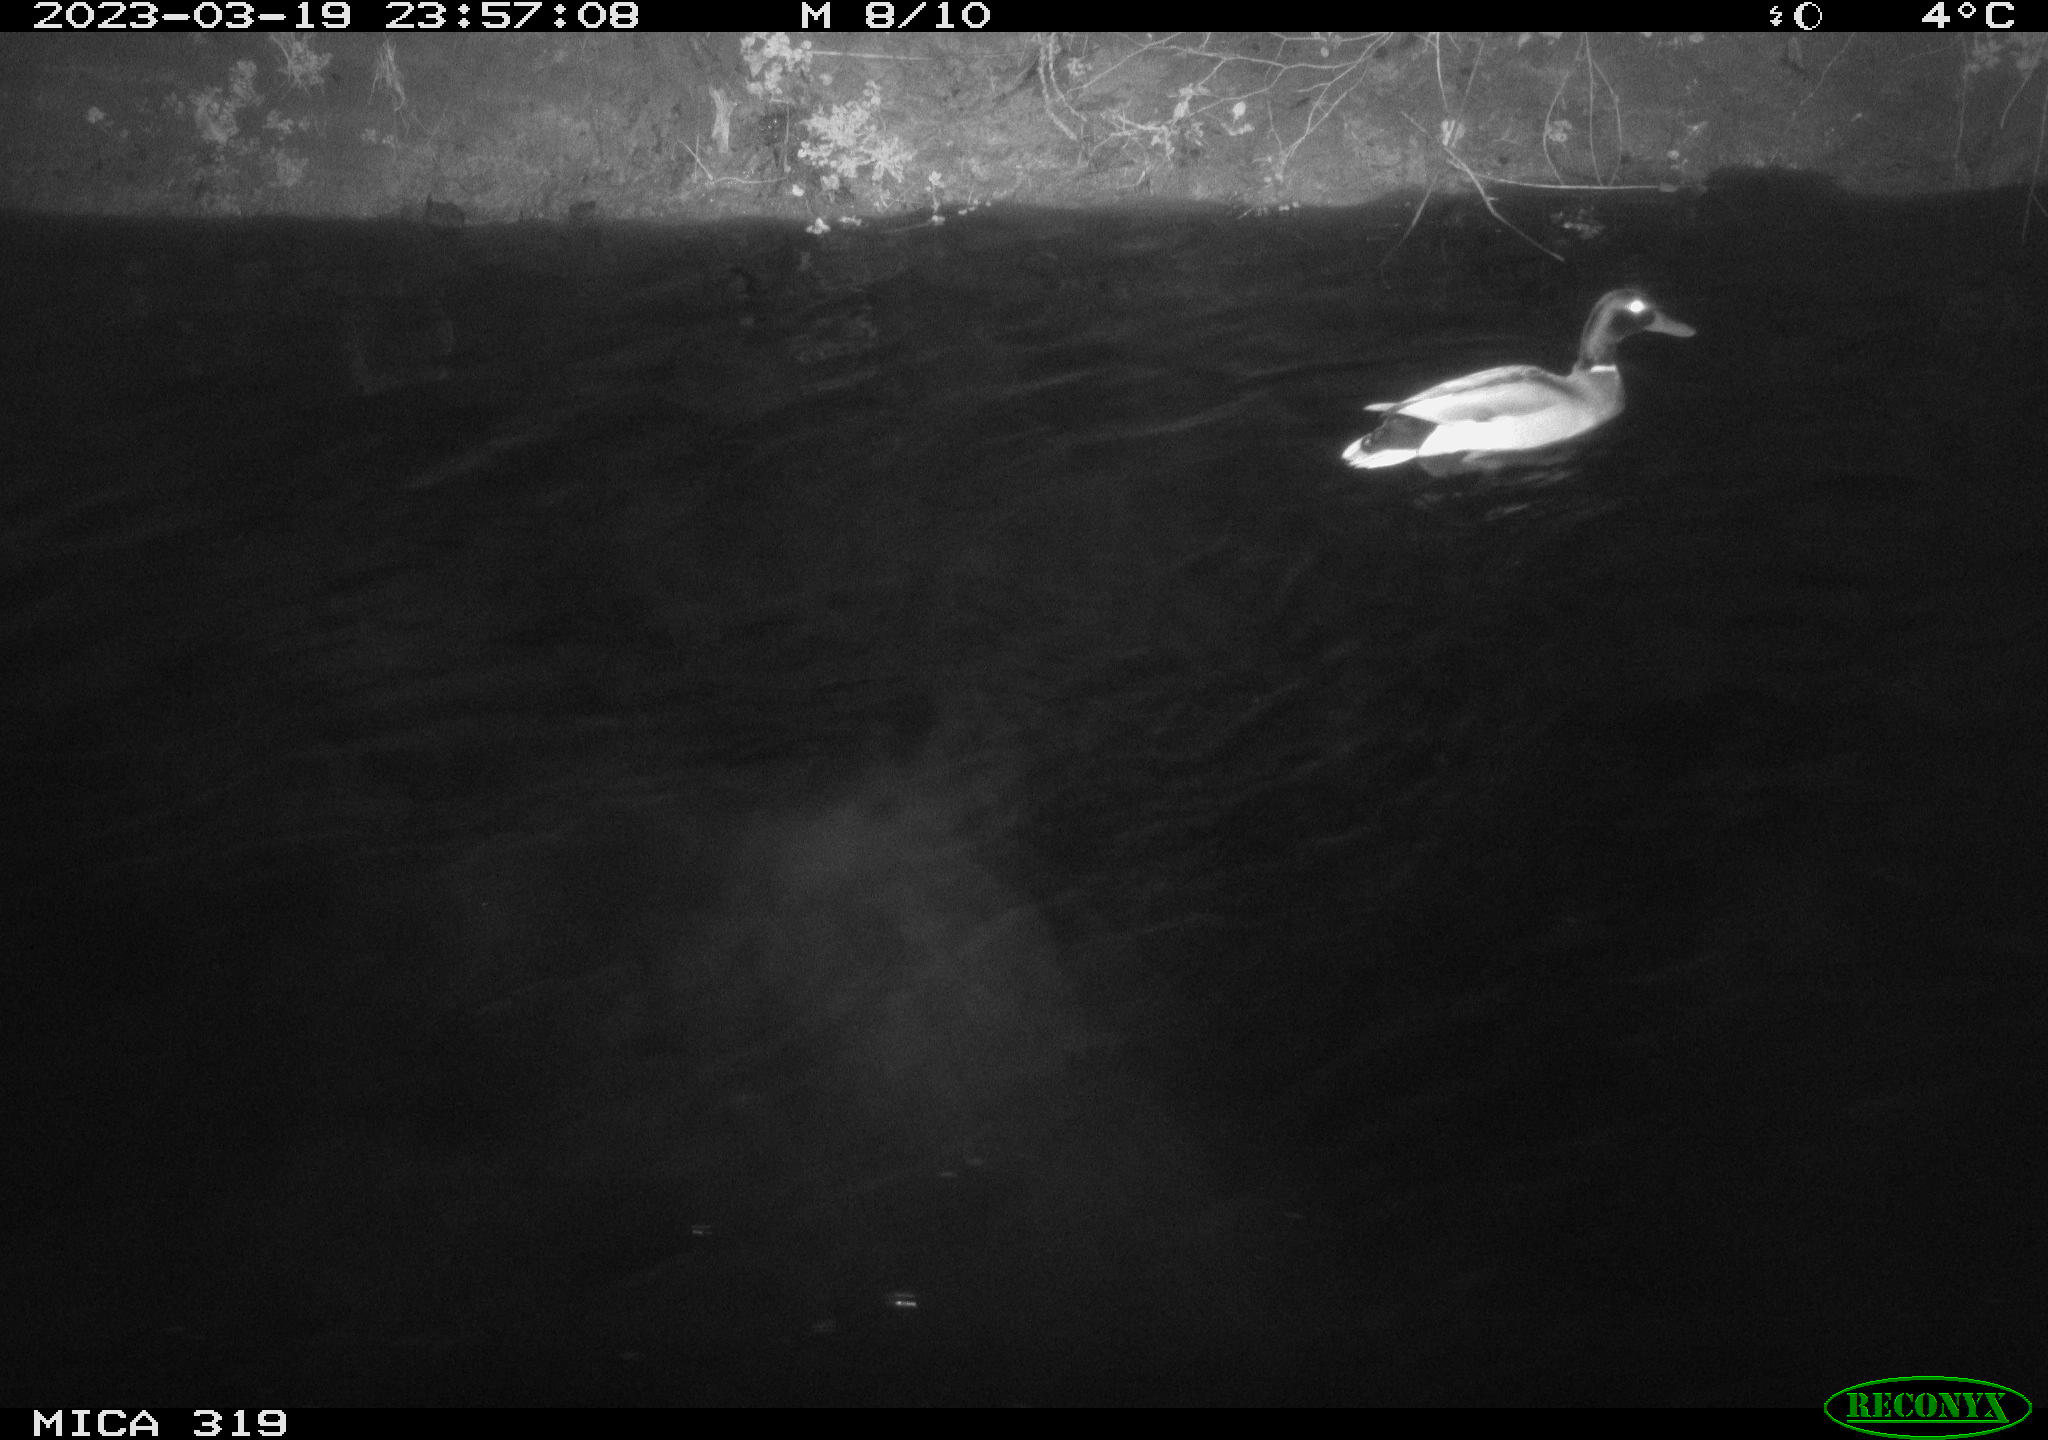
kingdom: Animalia
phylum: Chordata
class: Aves
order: Anseriformes
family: Anatidae
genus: Anas
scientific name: Anas
